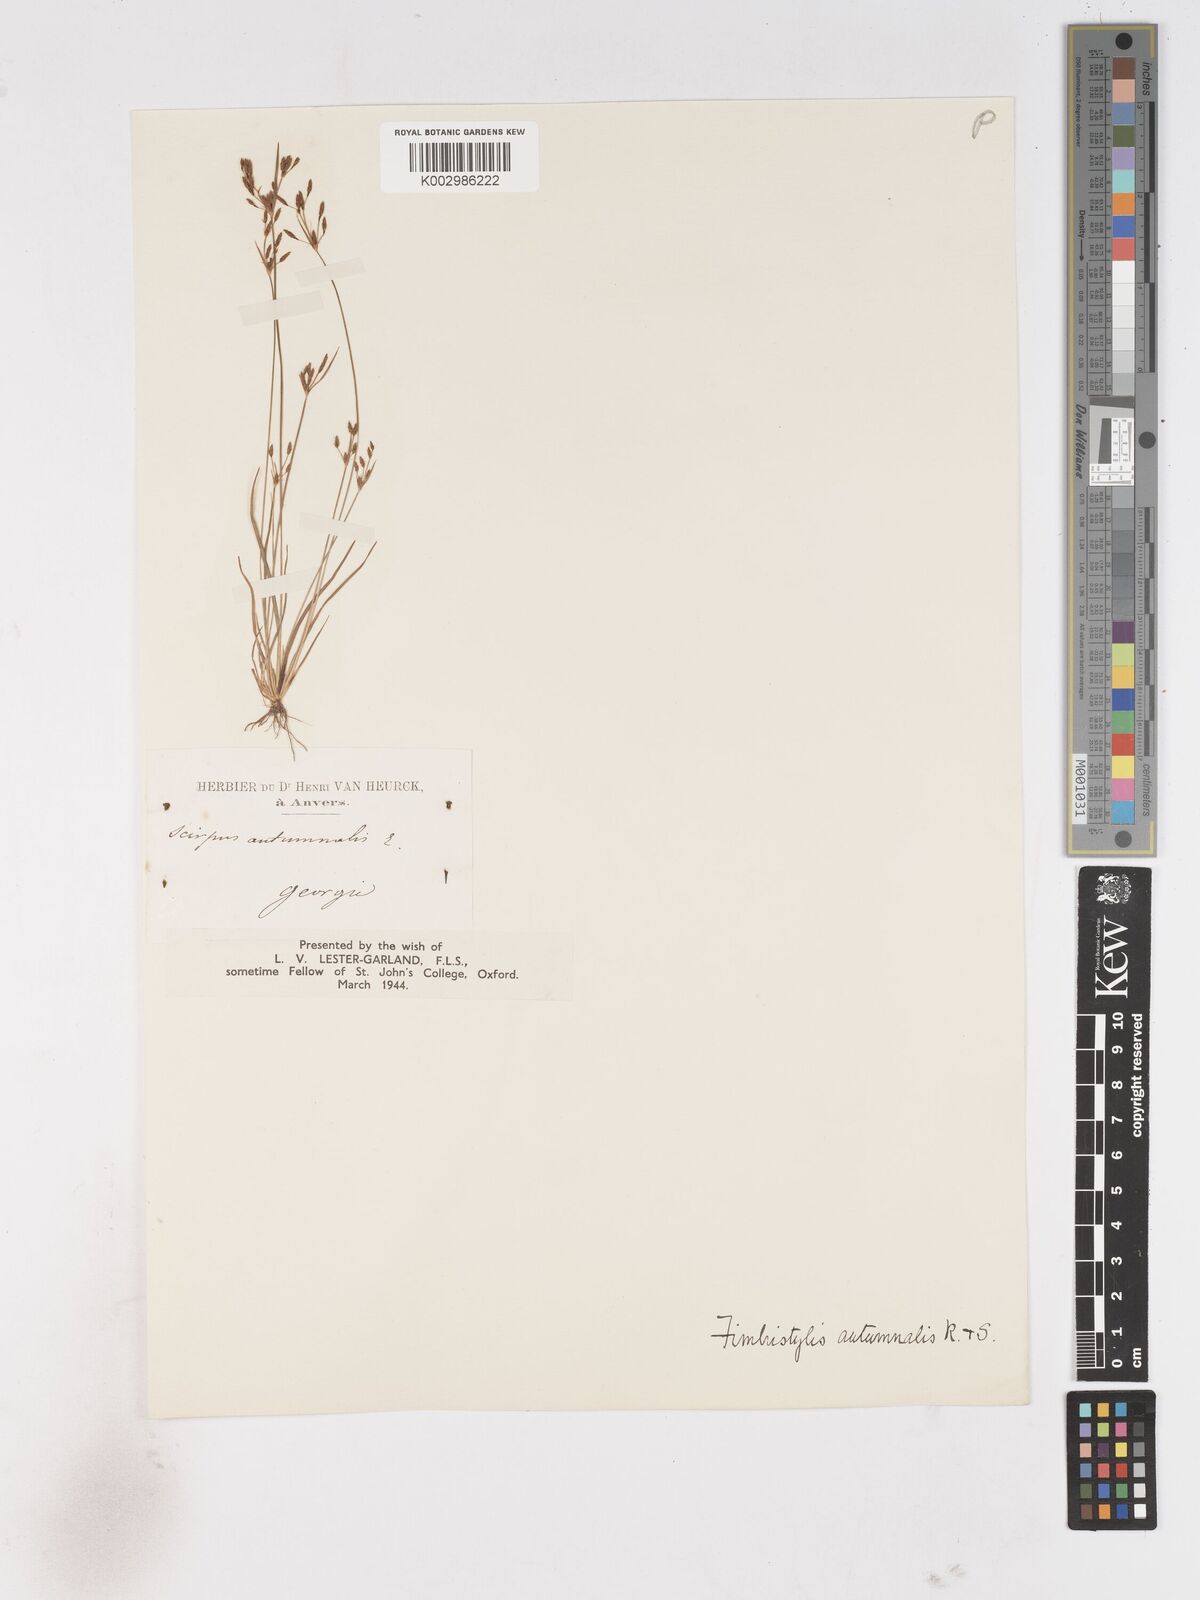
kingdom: Plantae
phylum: Tracheophyta
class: Liliopsida
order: Poales
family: Cyperaceae
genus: Fimbristylis
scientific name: Fimbristylis autumnalis
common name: Slender fimbristylis
